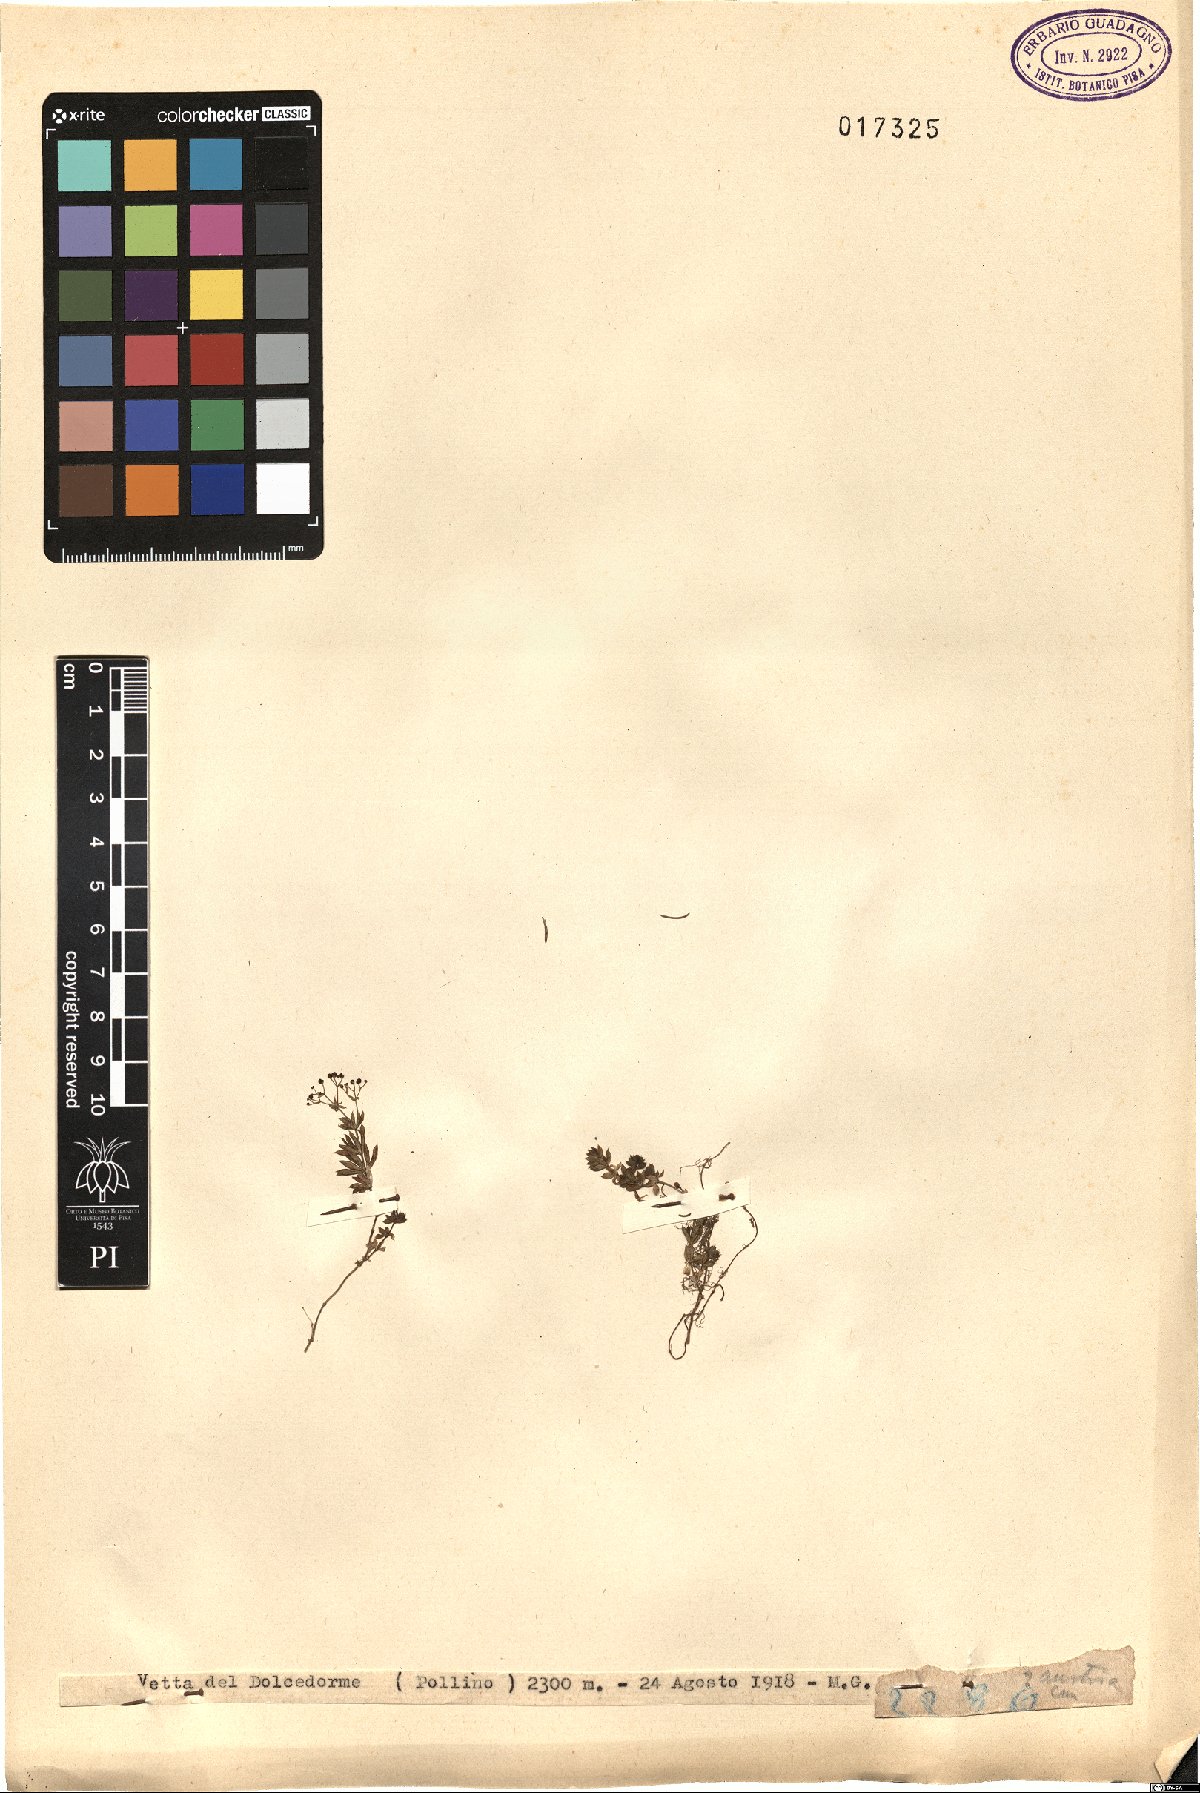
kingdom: Plantae
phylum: Tracheophyta
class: Magnoliopsida
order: Gentianales
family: Rubiaceae
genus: Galium
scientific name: Galium
